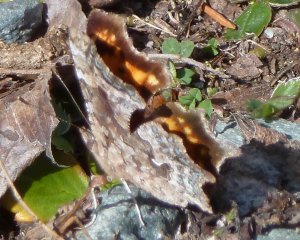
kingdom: Animalia
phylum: Arthropoda
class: Insecta
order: Lepidoptera
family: Nymphalidae
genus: Polygonia
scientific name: Polygonia faunus
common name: Green Comma
